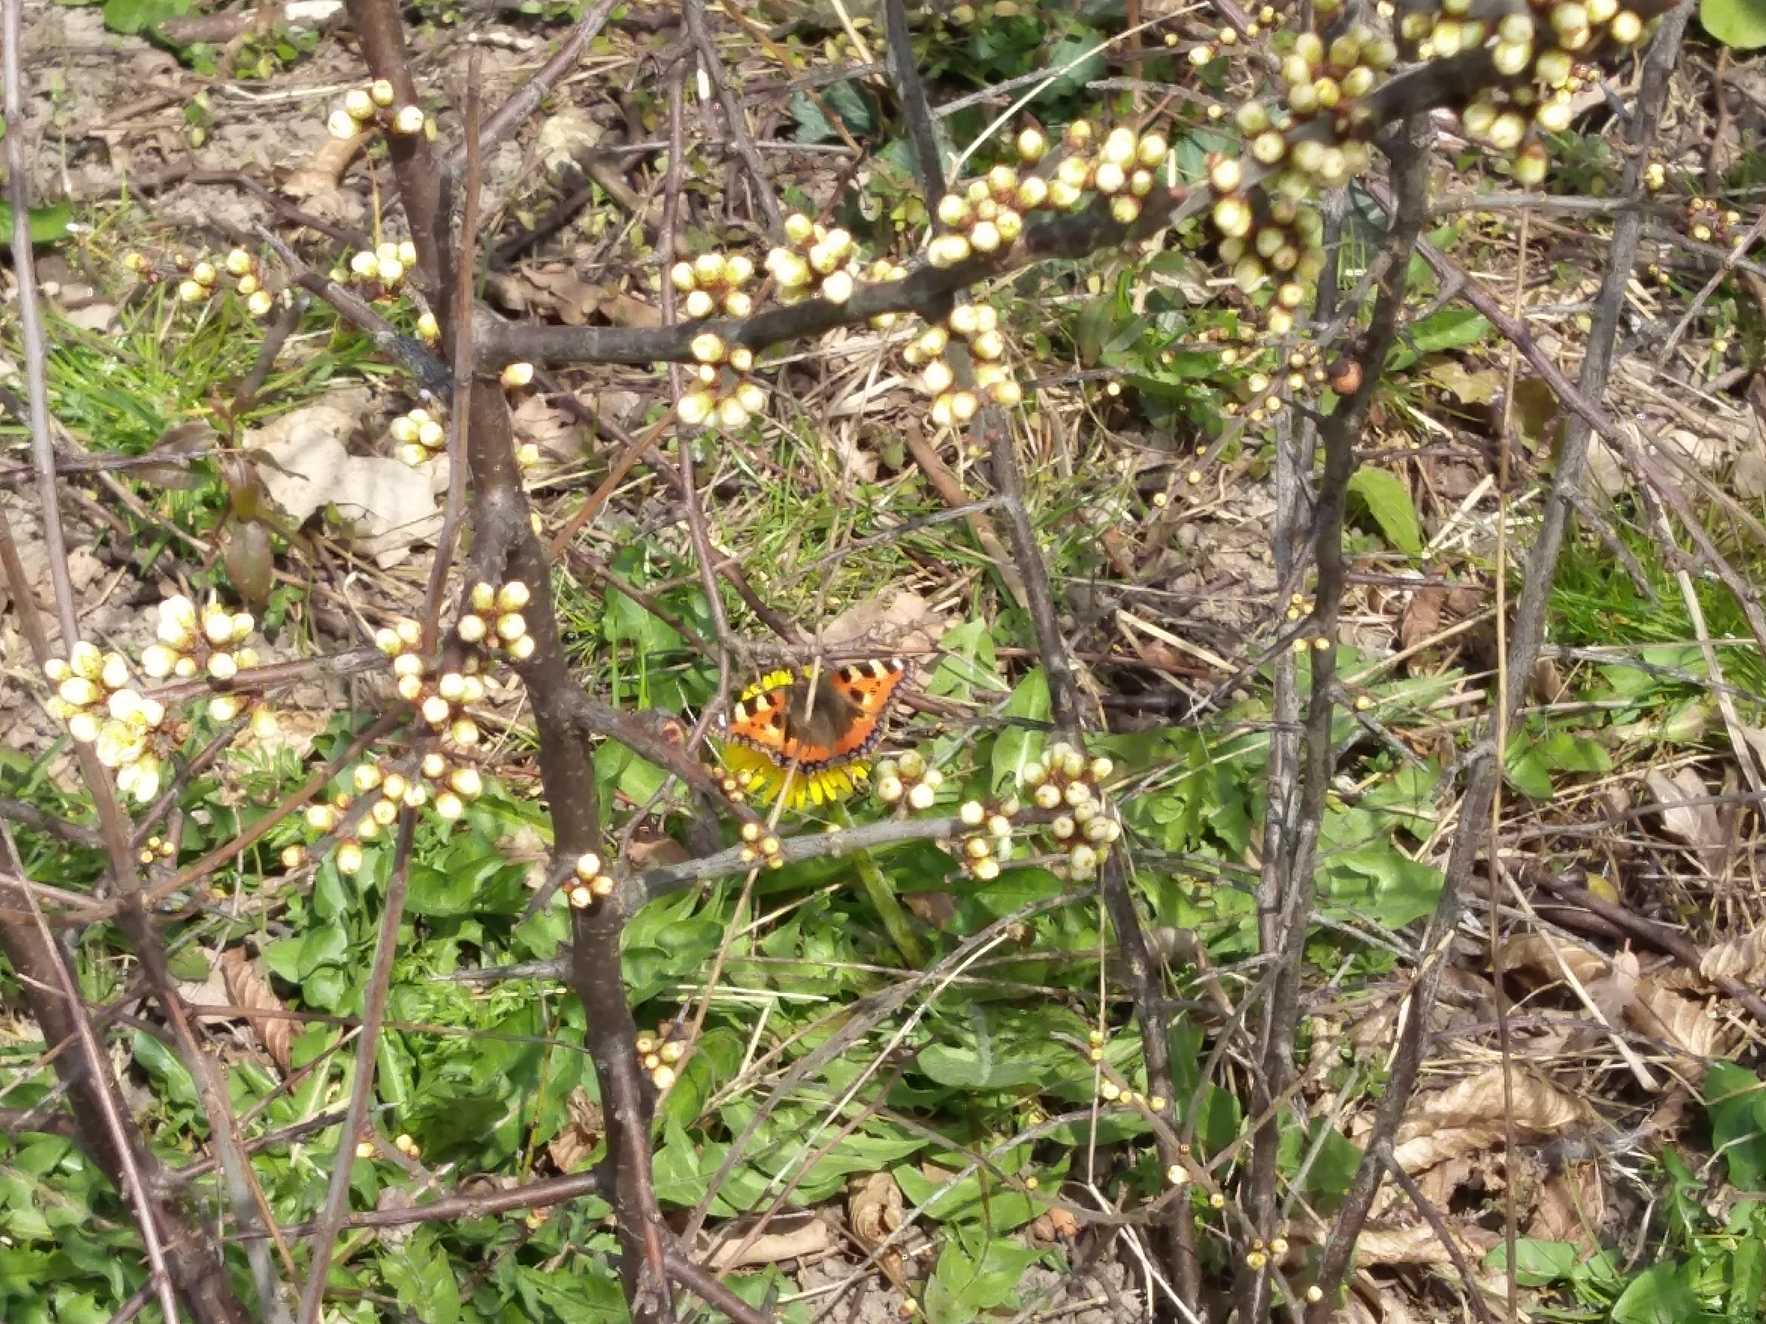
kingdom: Animalia
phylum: Arthropoda
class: Insecta
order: Lepidoptera
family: Nymphalidae
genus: Aglais
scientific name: Aglais urticae
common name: Nældens takvinge
